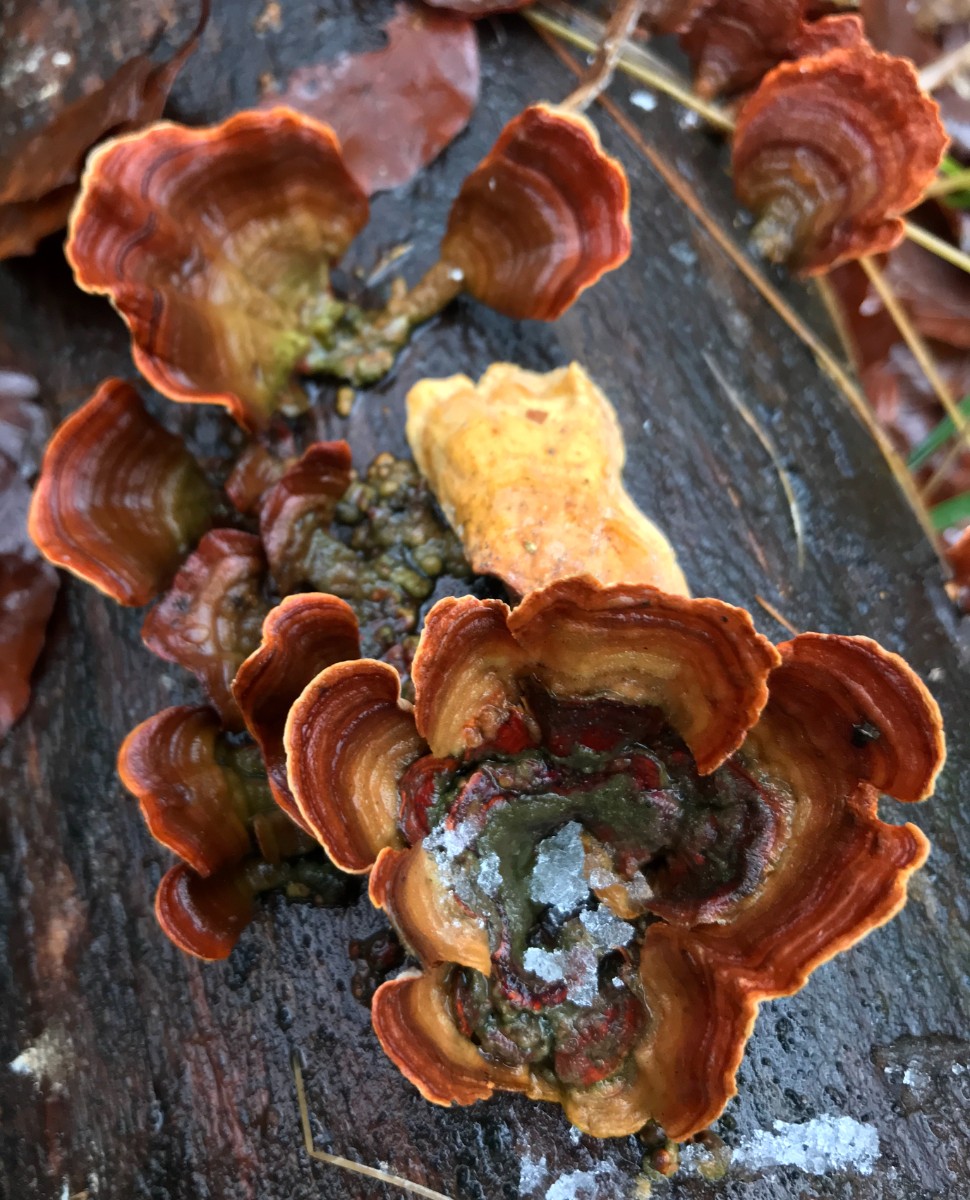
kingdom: Fungi
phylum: Basidiomycota
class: Agaricomycetes
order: Russulales
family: Stereaceae
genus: Stereum
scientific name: Stereum subtomentosum
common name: smuk lædersvamp
